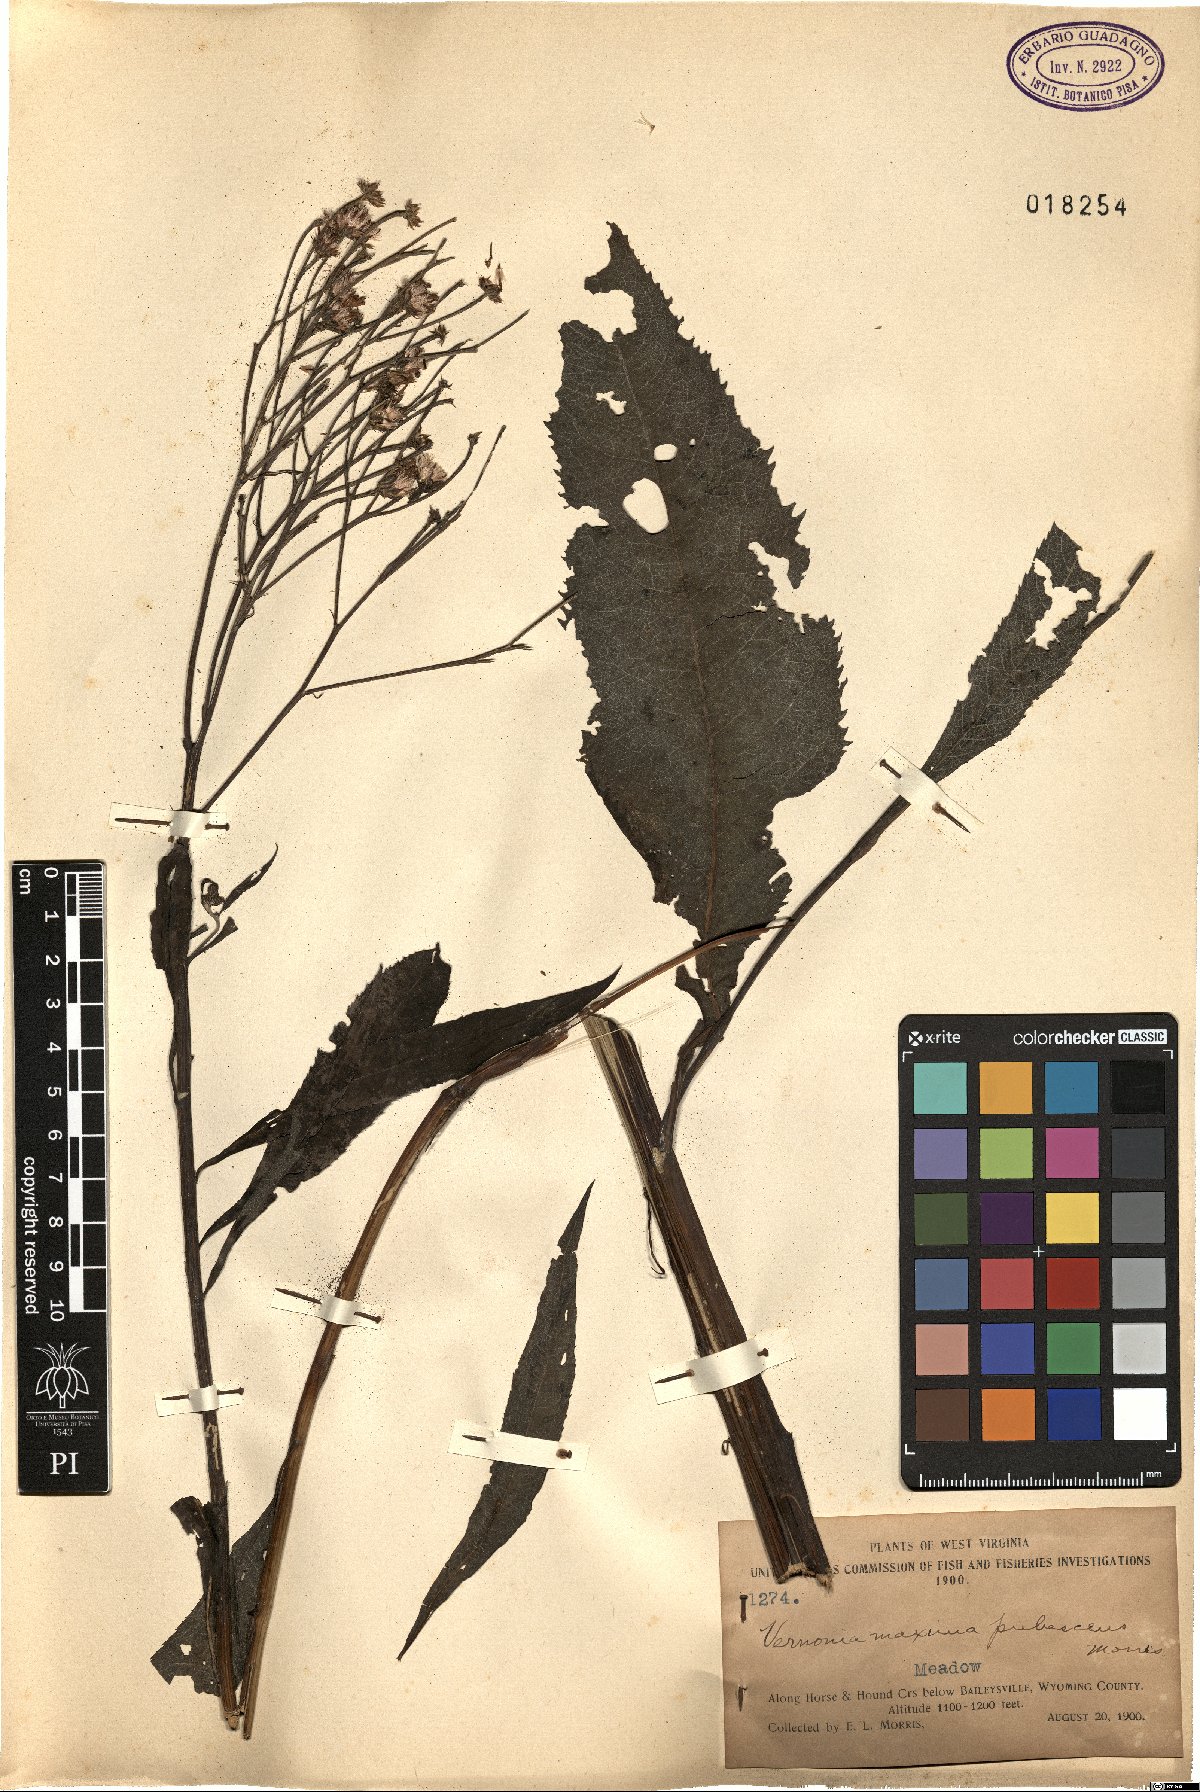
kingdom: Plantae
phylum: Tracheophyta
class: Magnoliopsida
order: Asterales
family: Asteraceae
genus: Vernonia
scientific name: Vernonia gigantea
